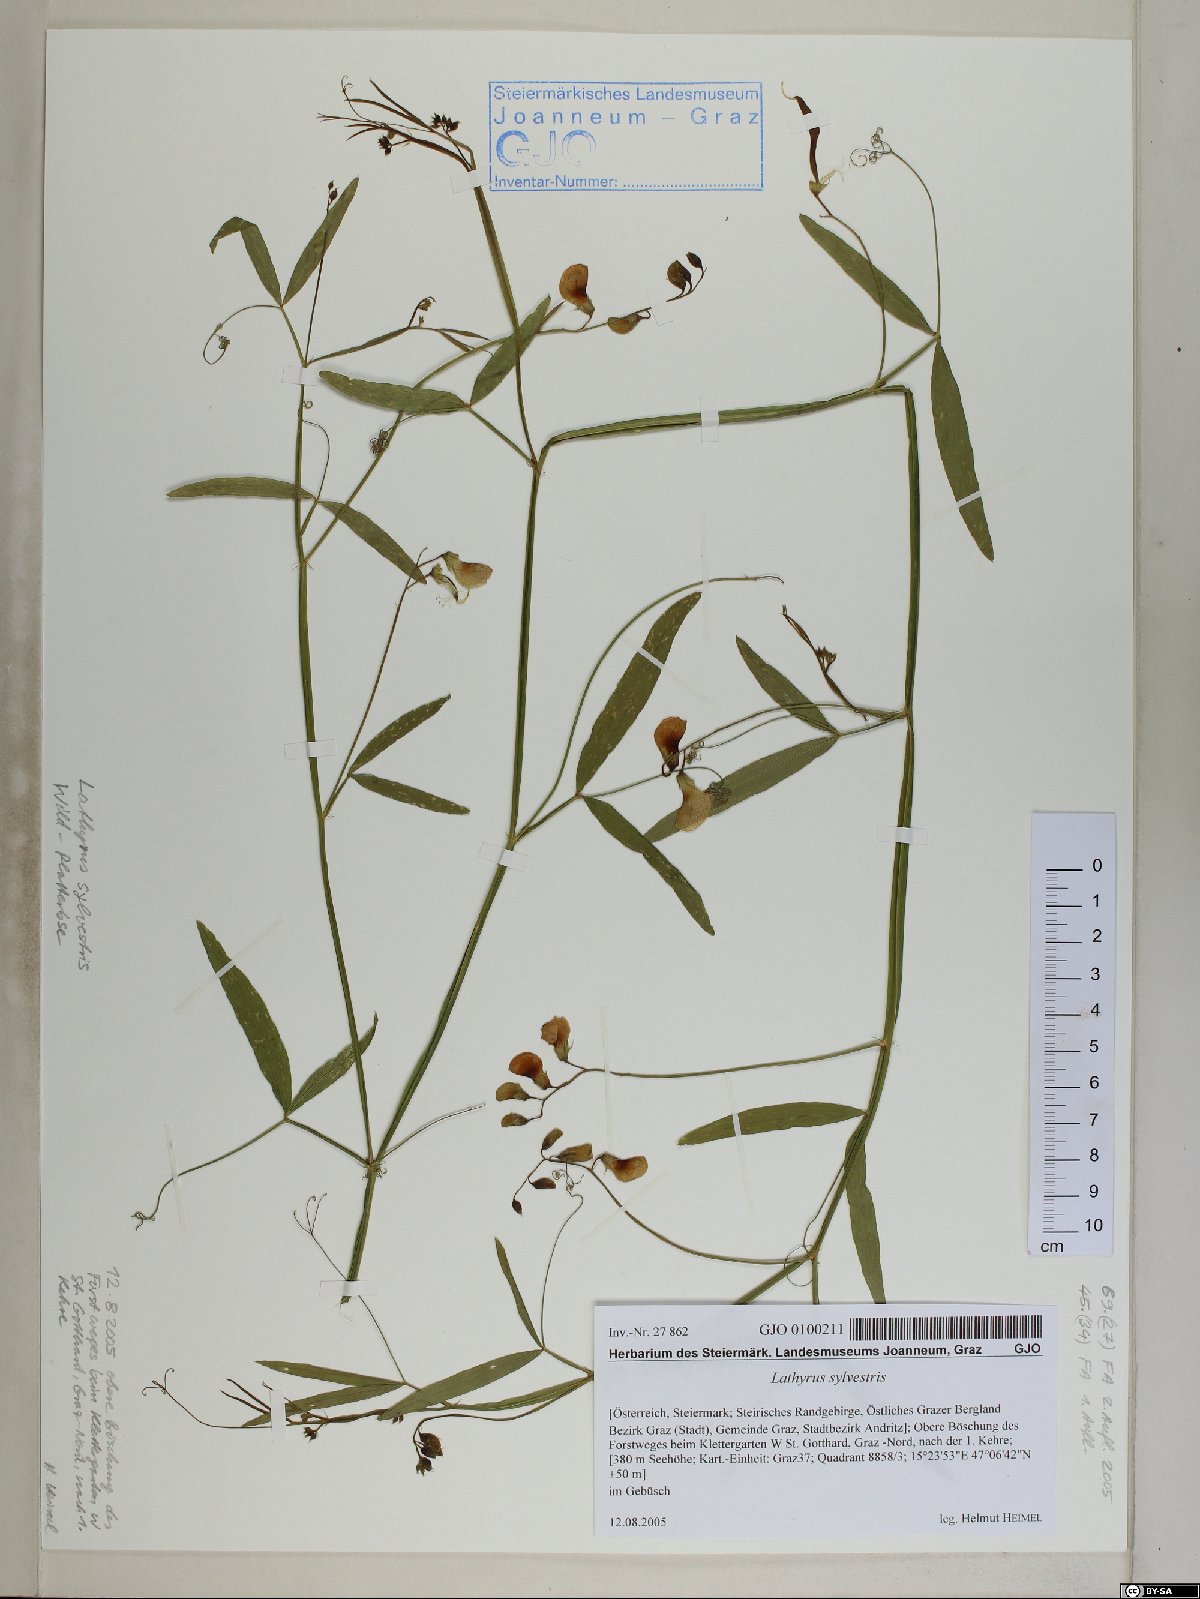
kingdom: Plantae
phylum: Tracheophyta
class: Magnoliopsida
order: Fabales
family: Fabaceae
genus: Lathyrus
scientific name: Lathyrus sylvestris
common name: Flat pea
